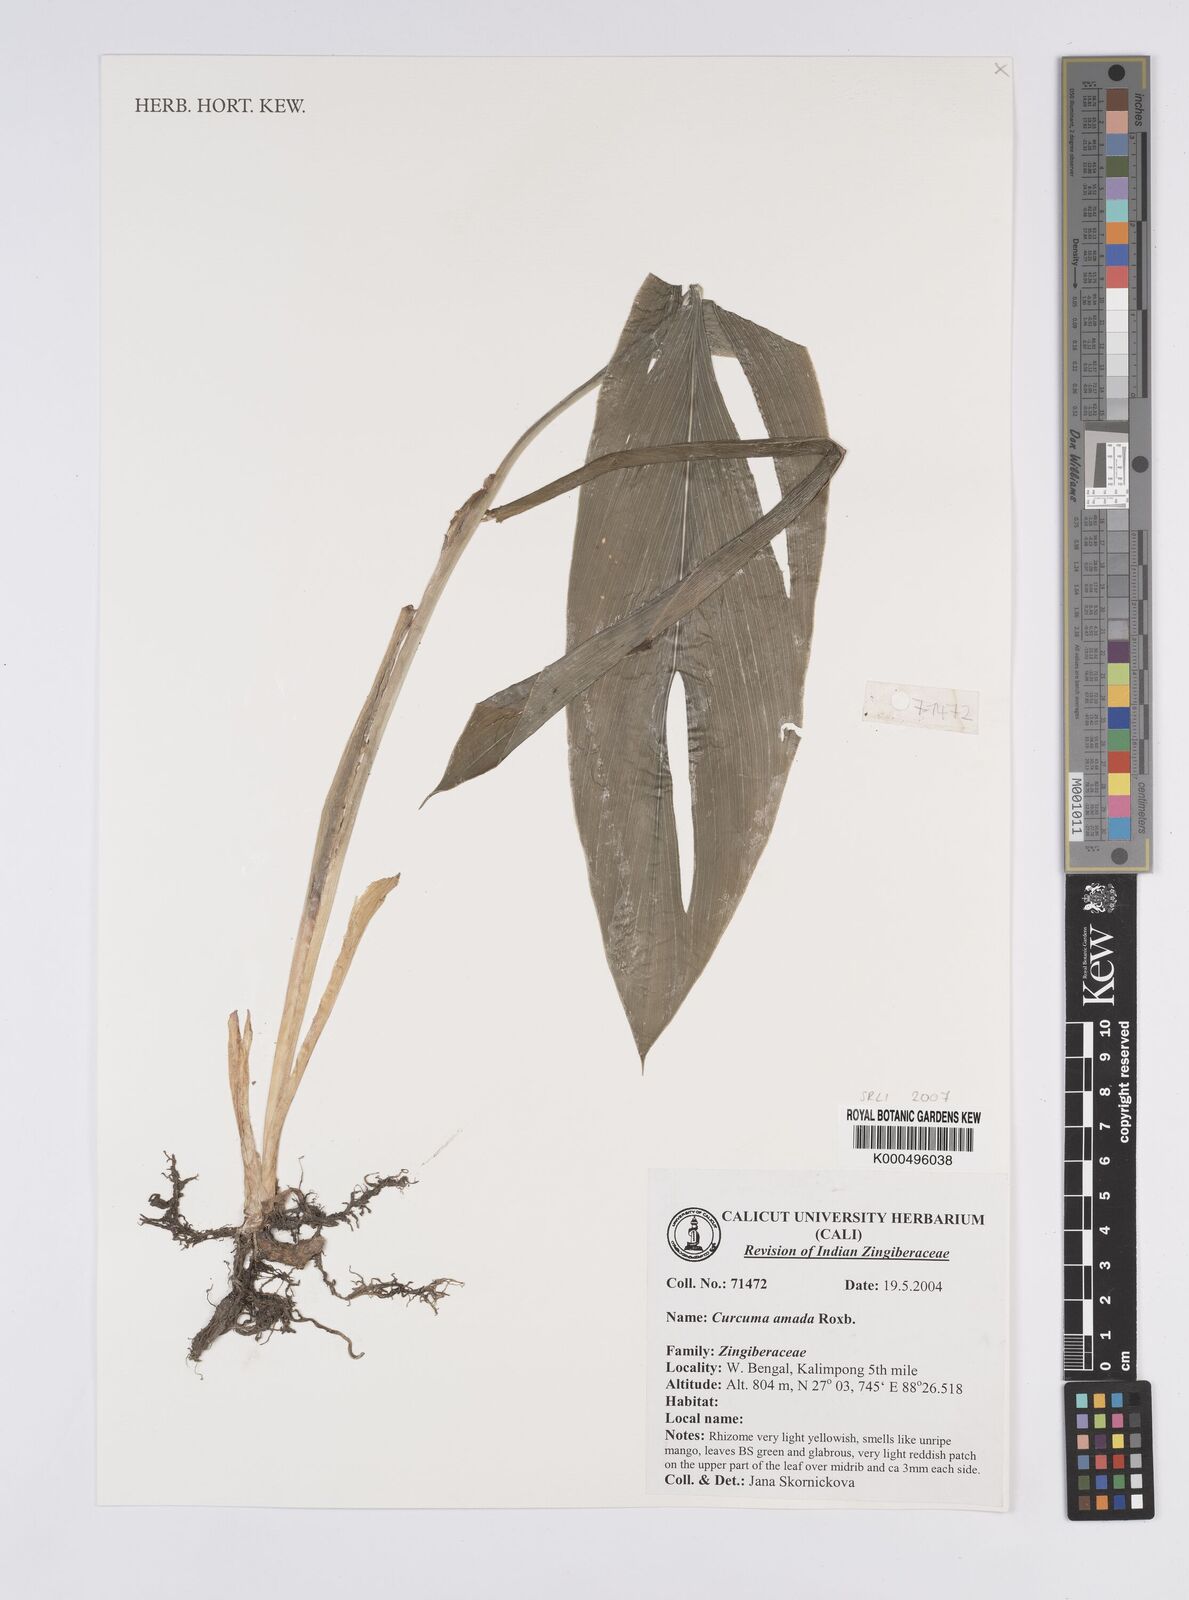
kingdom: Plantae
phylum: Tracheophyta
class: Liliopsida
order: Zingiberales
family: Zingiberaceae
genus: Curcuma
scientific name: Curcuma amada
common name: Mango-ginger
